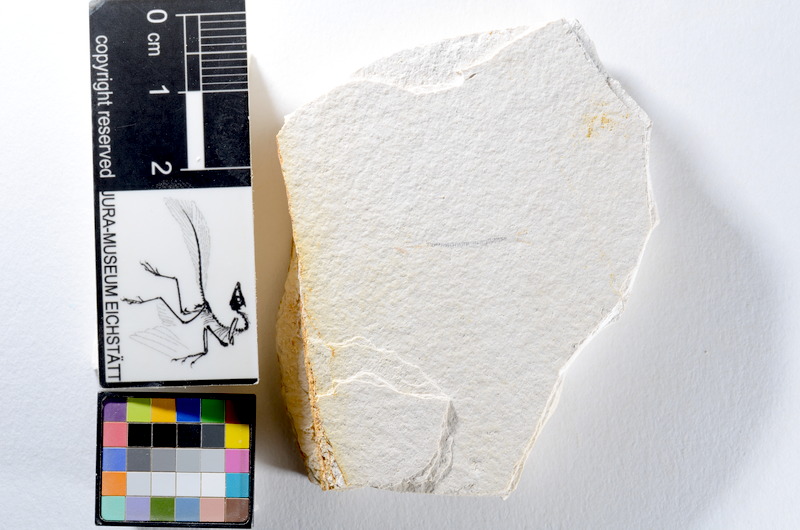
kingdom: Animalia
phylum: Chordata
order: Salmoniformes
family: Orthogonikleithridae
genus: Orthogonikleithrus
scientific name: Orthogonikleithrus hoelli
